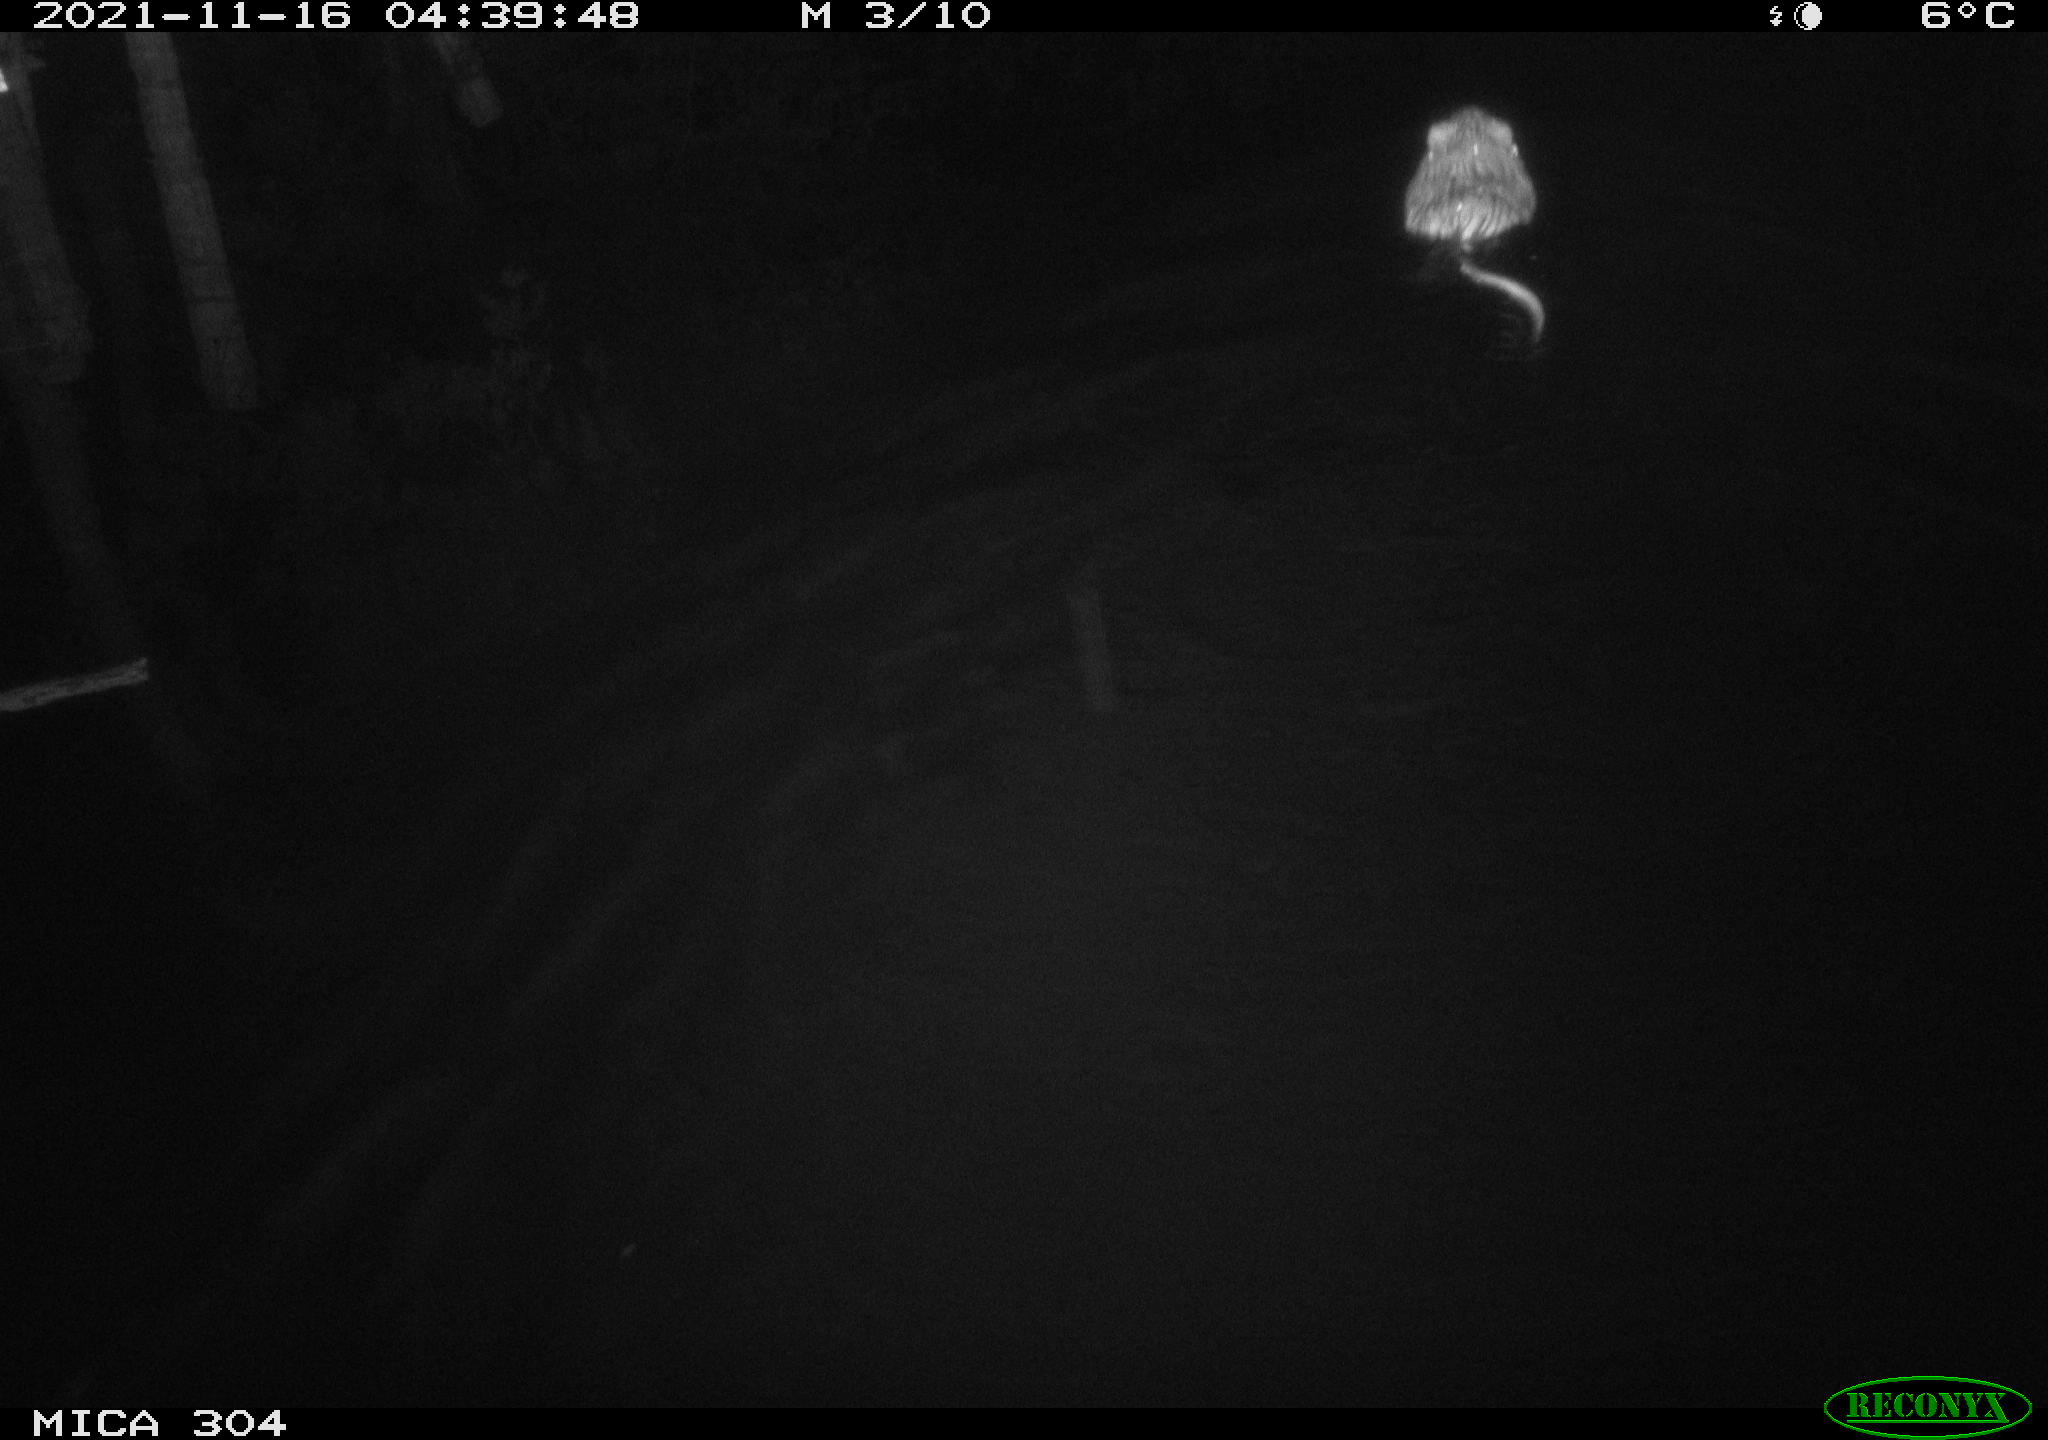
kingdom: Animalia
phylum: Chordata
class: Mammalia
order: Rodentia
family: Cricetidae
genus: Ondatra
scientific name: Ondatra zibethicus
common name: Muskrat
